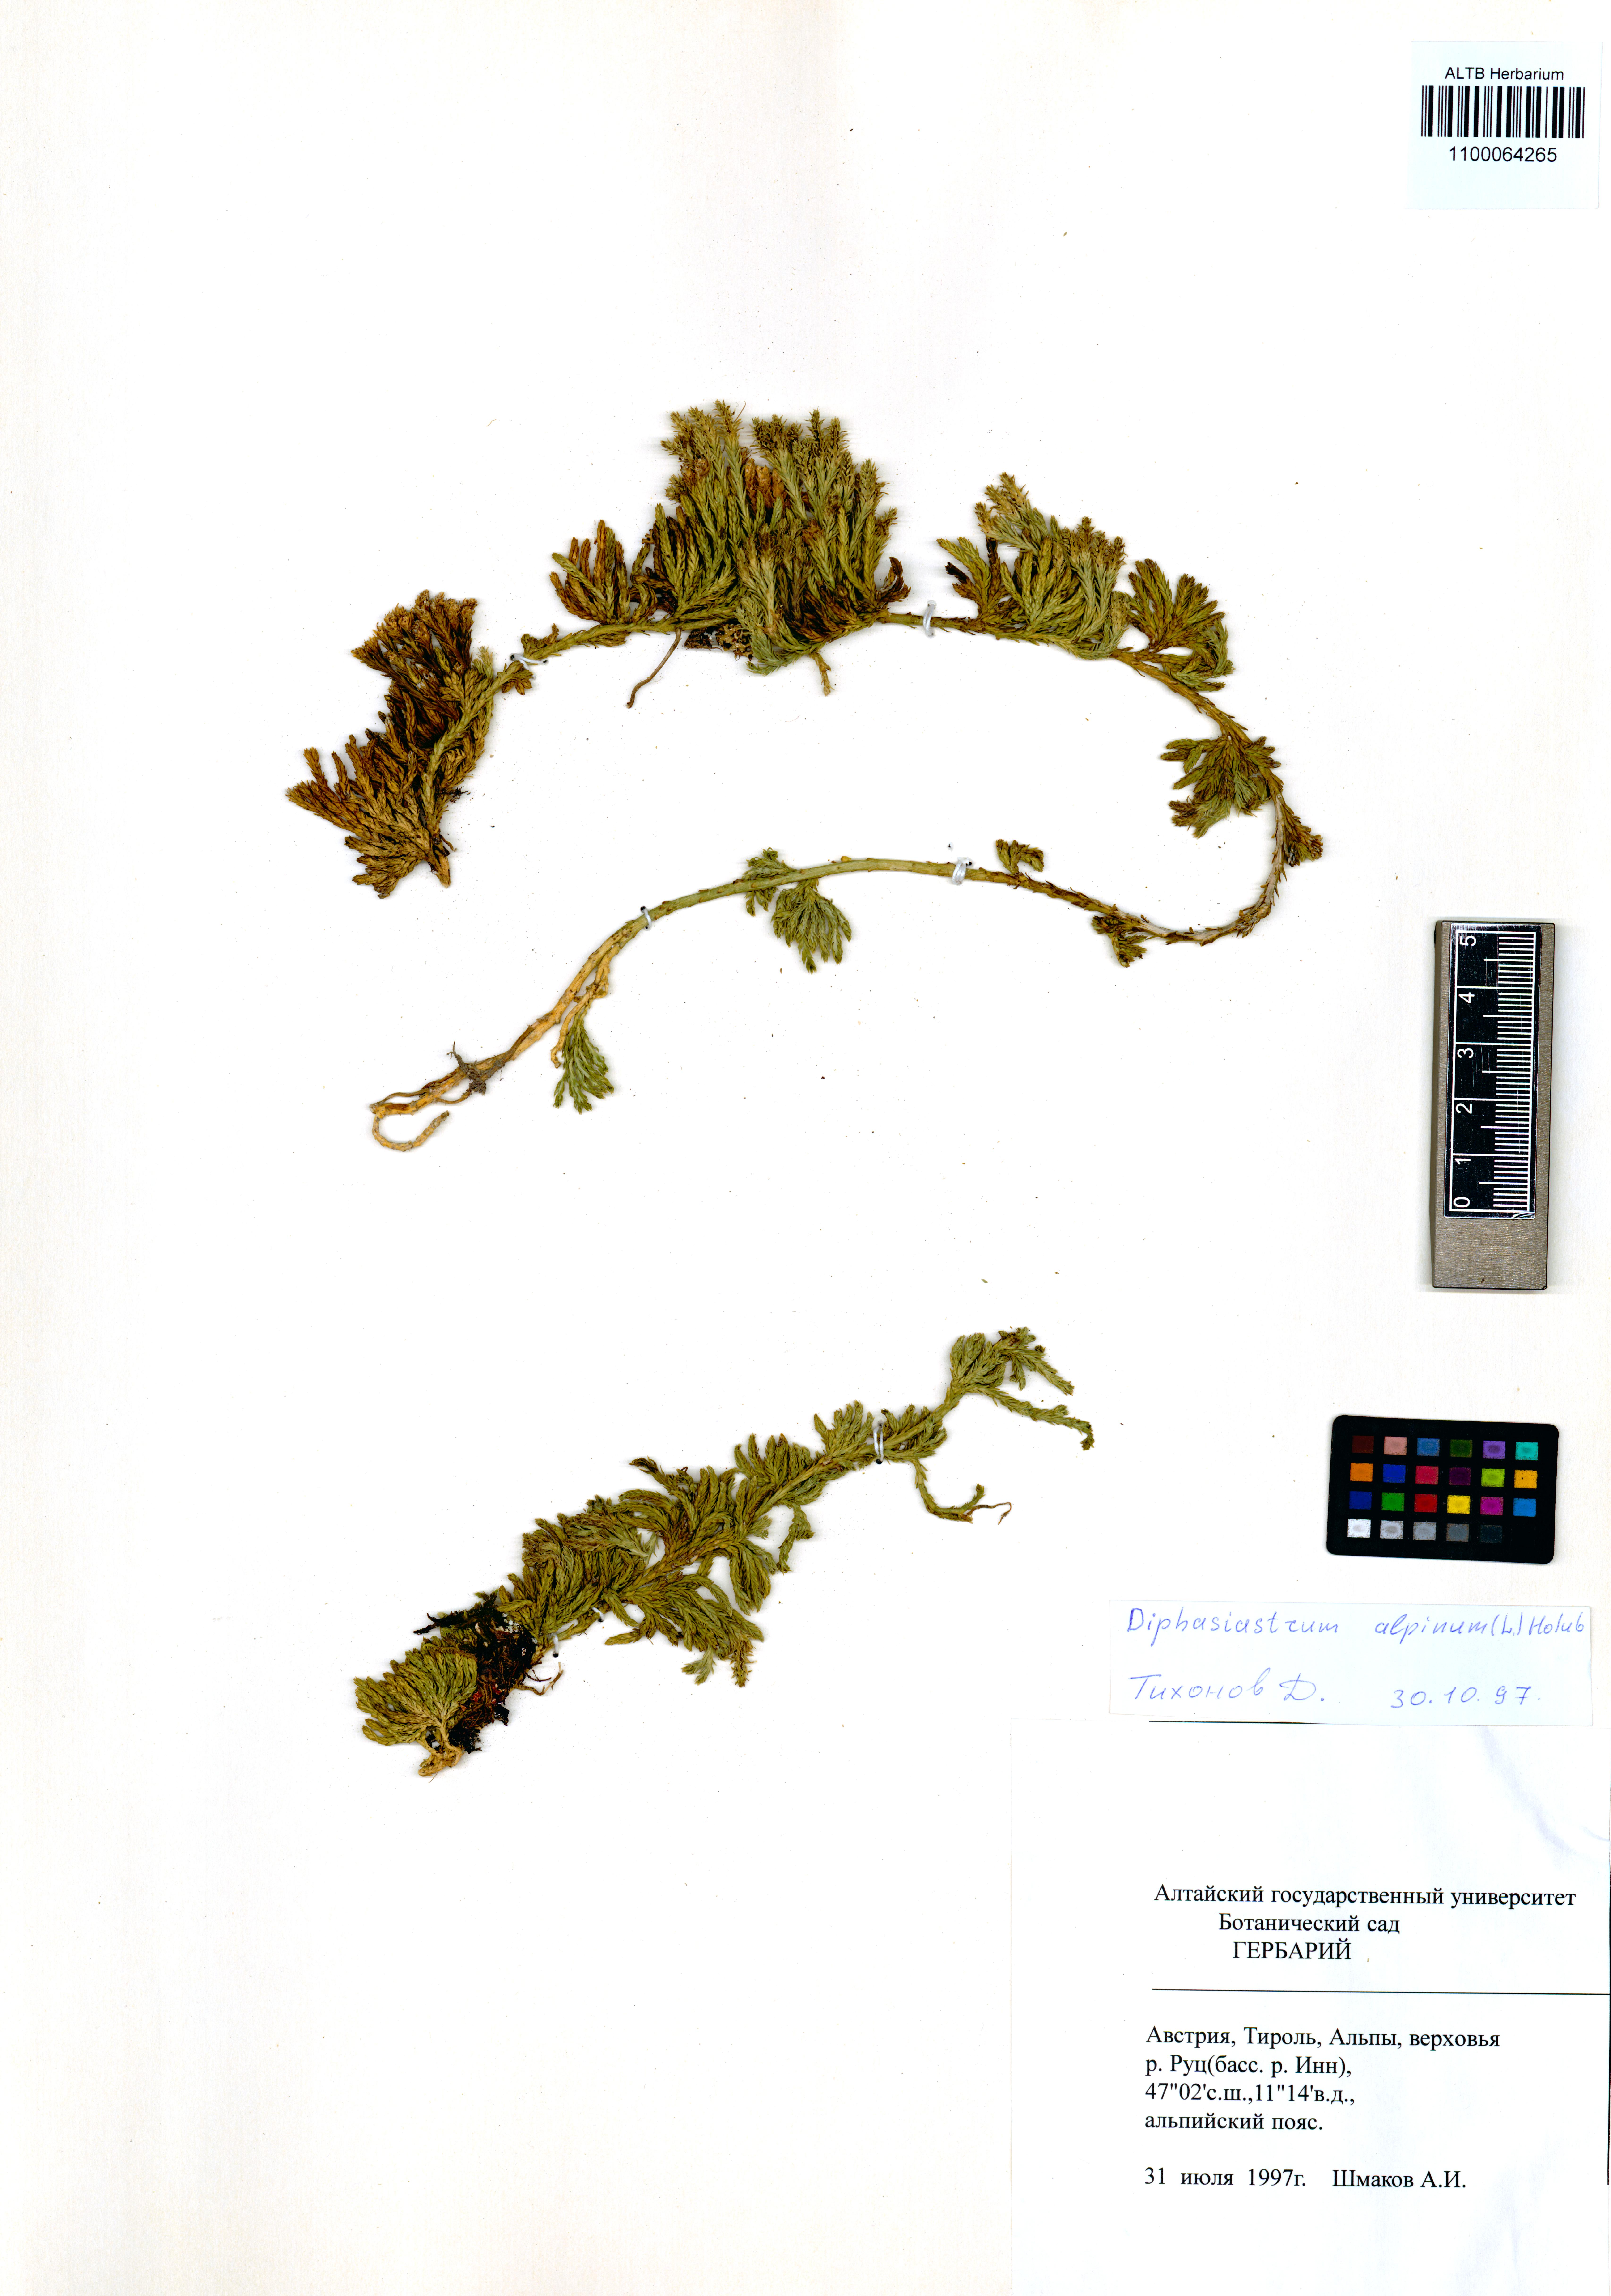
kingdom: Plantae
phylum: Tracheophyta
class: Lycopodiopsida
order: Lycopodiales
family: Lycopodiaceae
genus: Diphasiastrum
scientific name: Diphasiastrum alpinum
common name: Alpine clubmoss
